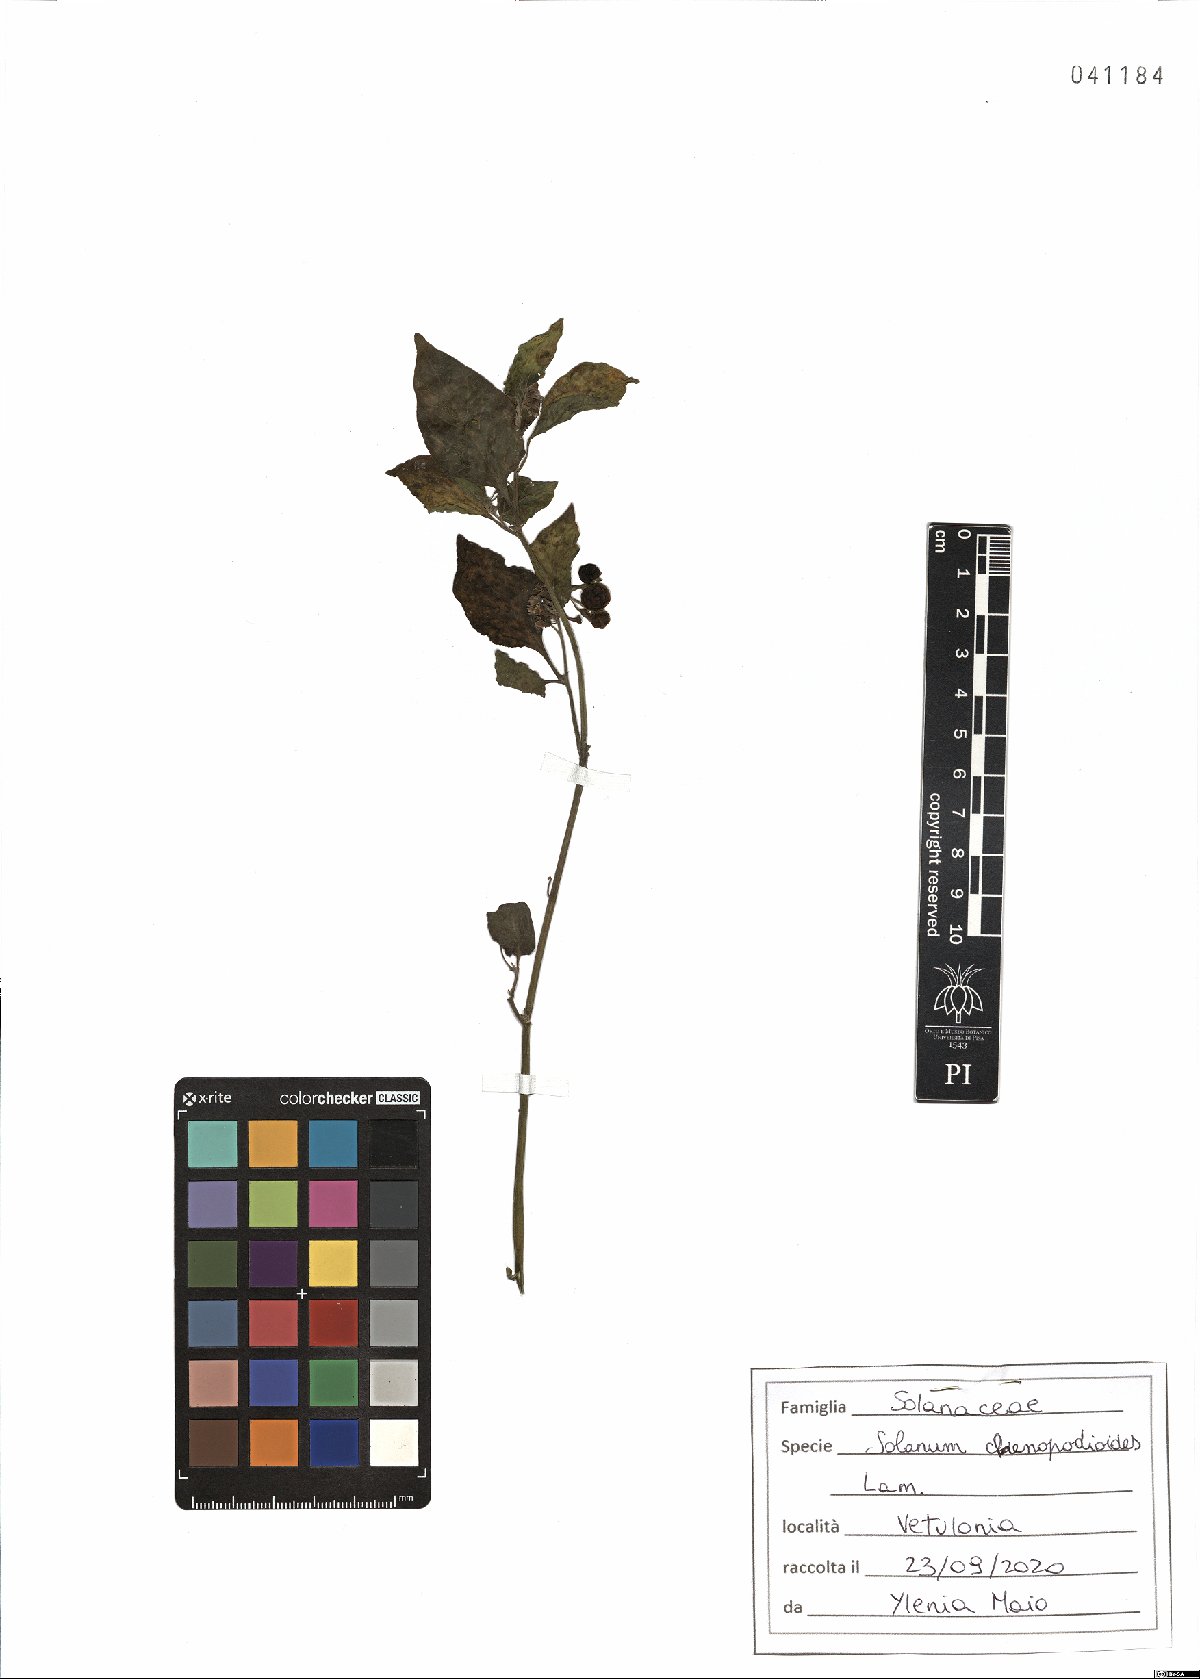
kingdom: Plantae
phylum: Tracheophyta
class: Magnoliopsida
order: Solanales
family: Solanaceae
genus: Solanum
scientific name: Solanum chenopodioides
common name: Tall nightshade
